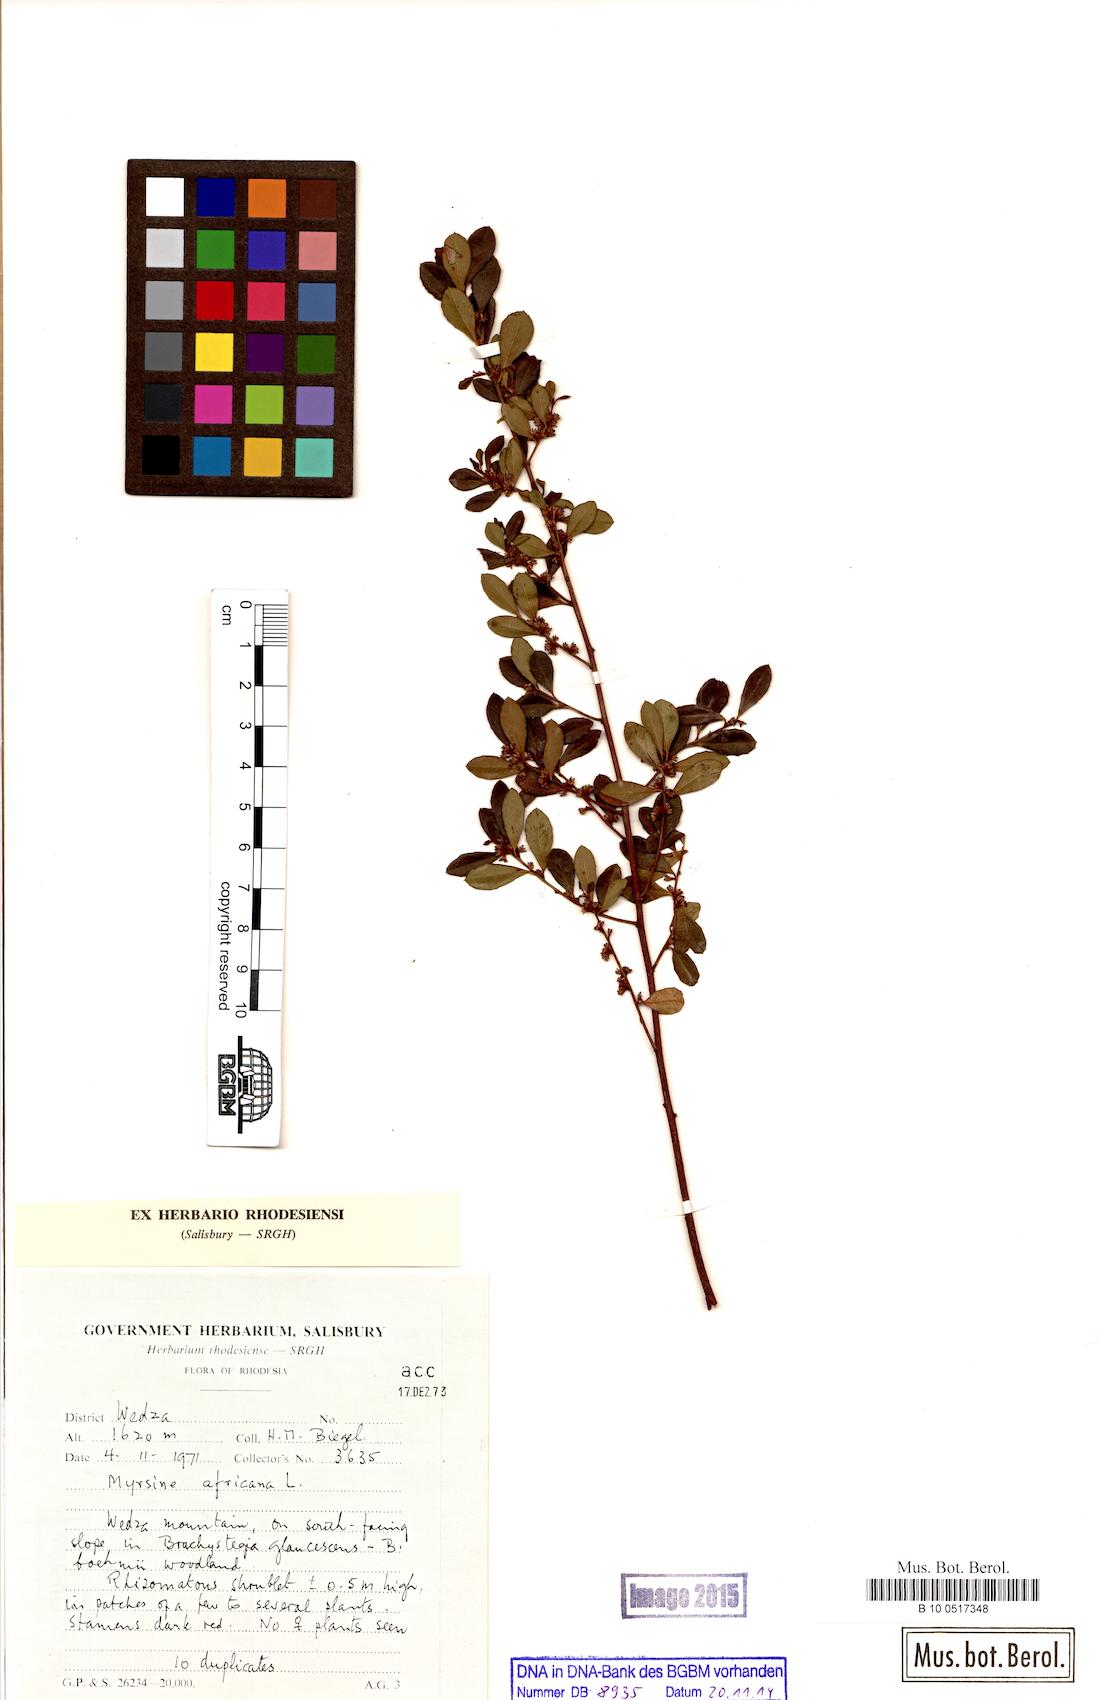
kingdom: Plantae
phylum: Tracheophyta
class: Magnoliopsida
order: Ericales
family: Primulaceae
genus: Myrsine
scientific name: Myrsine africana
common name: African-boxwood
